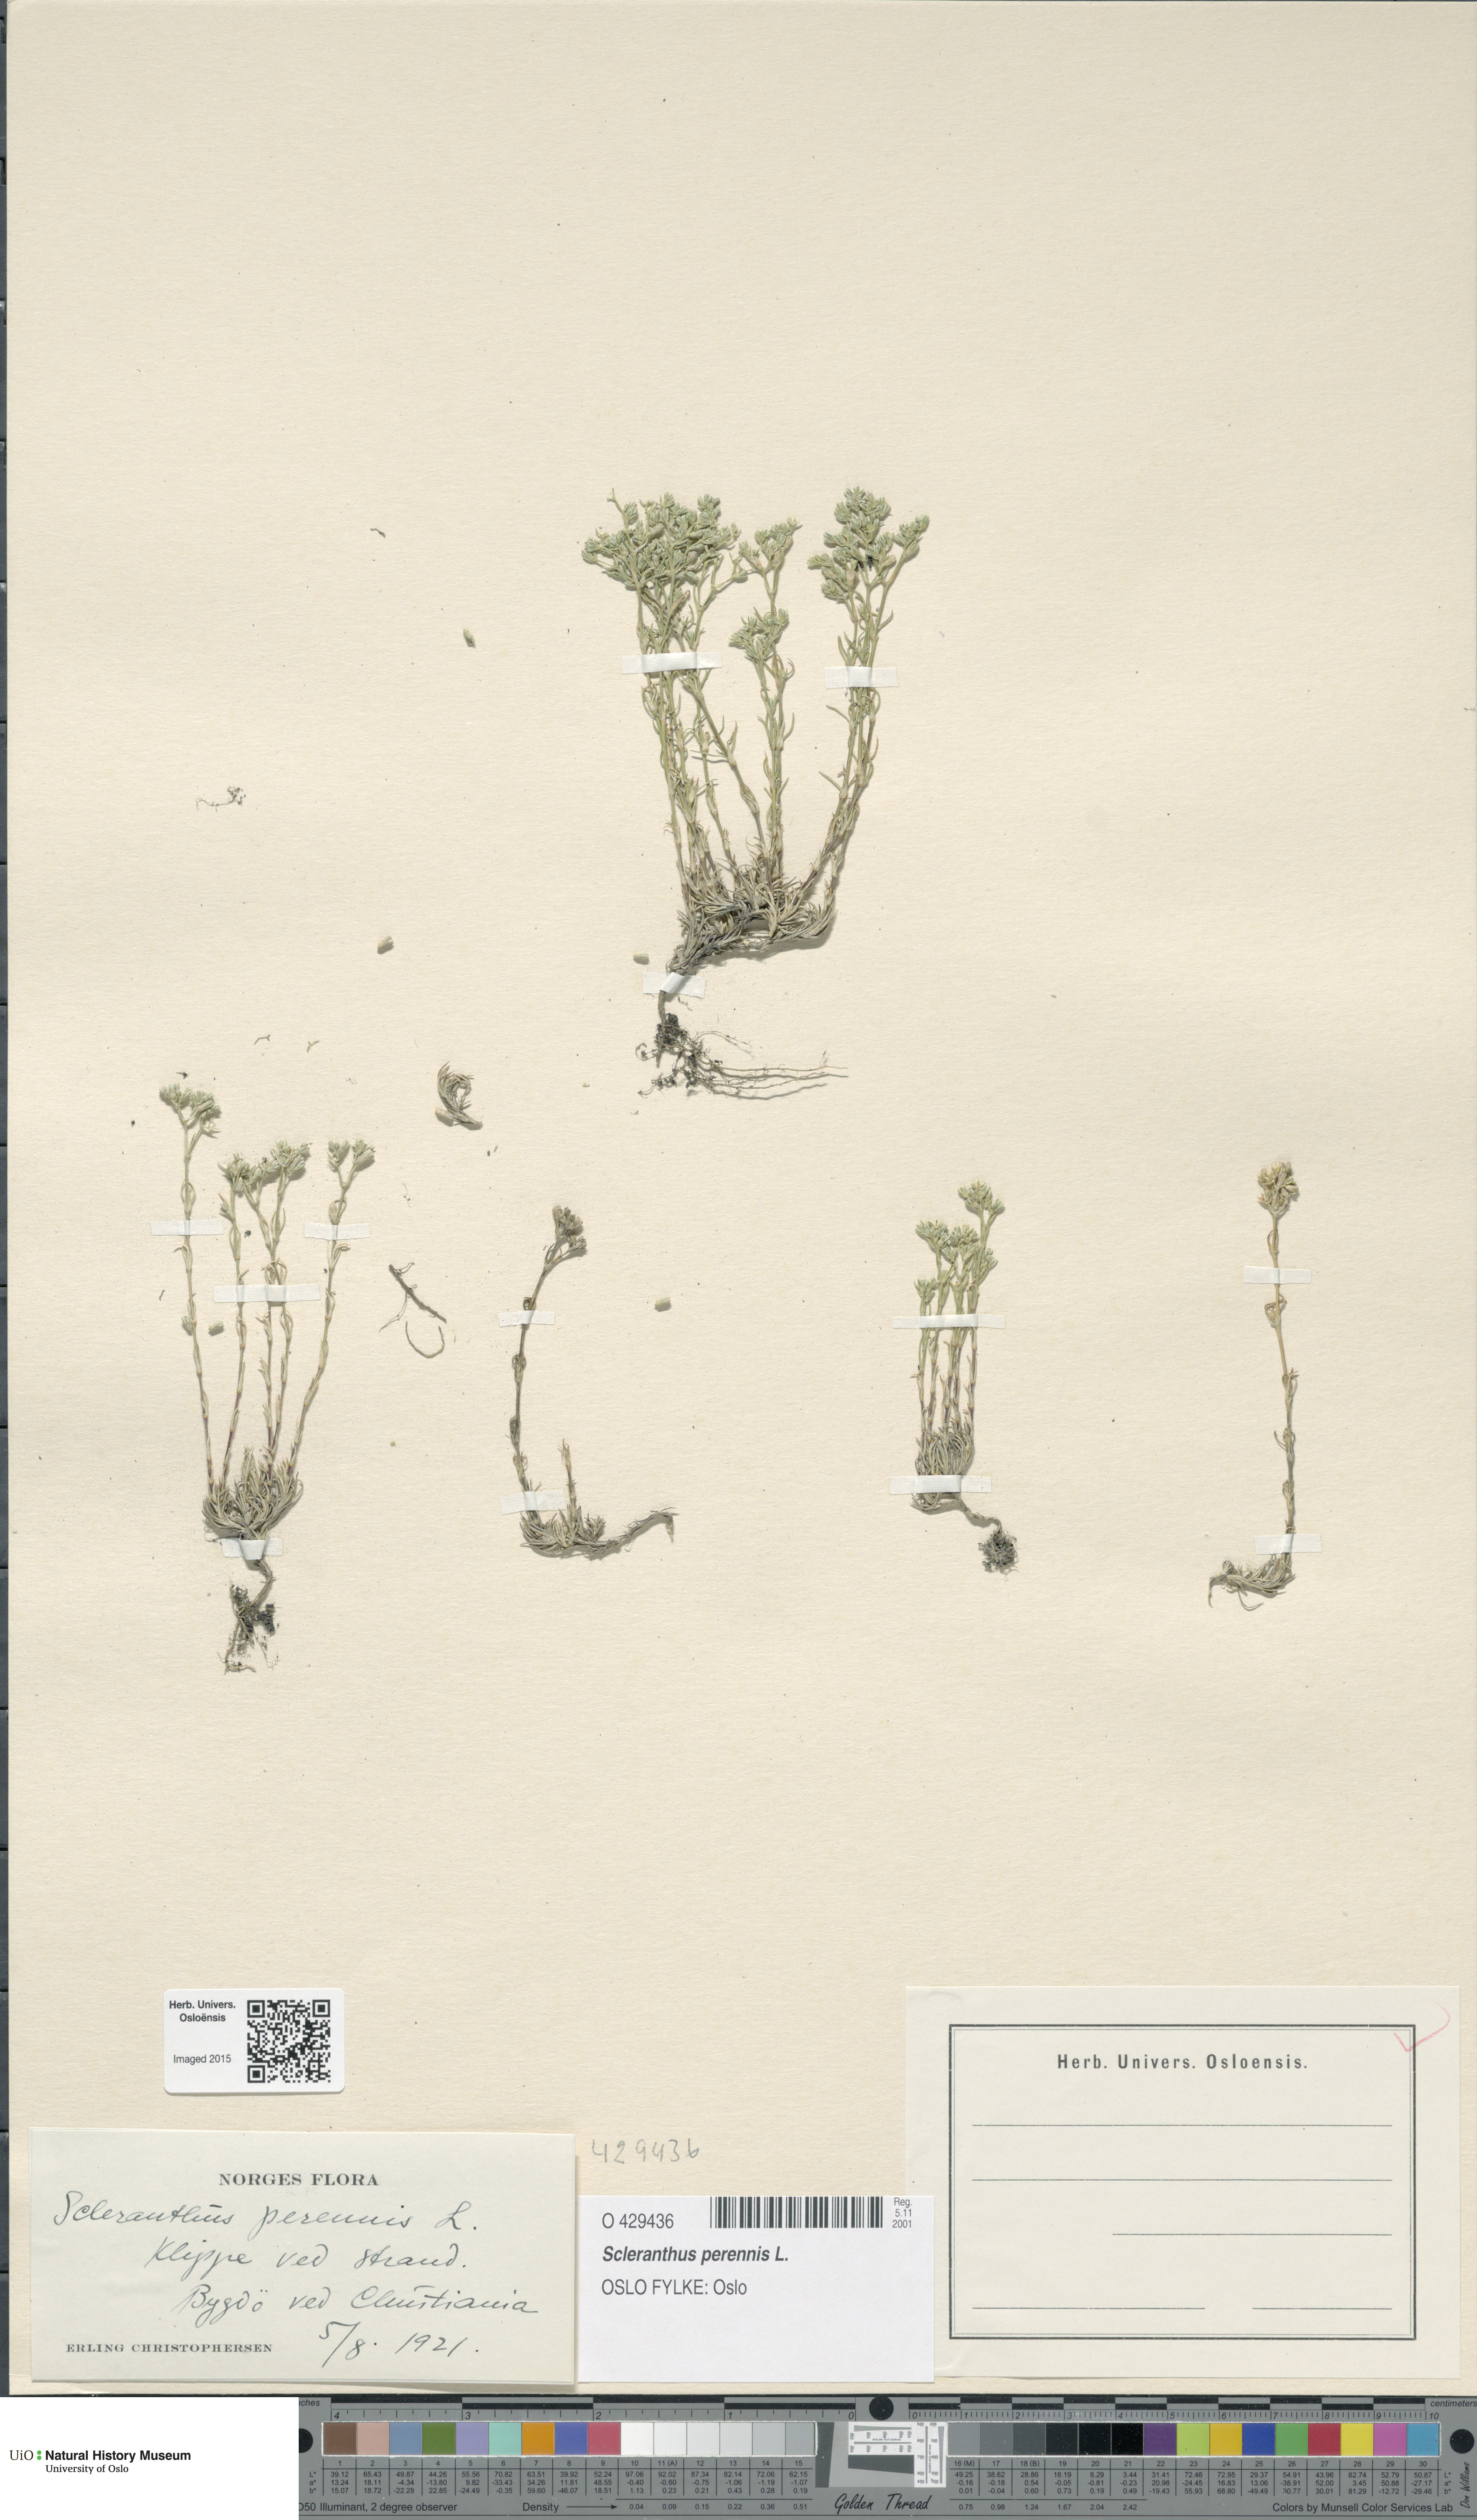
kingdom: Plantae
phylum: Tracheophyta
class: Magnoliopsida
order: Caryophyllales
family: Caryophyllaceae
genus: Scleranthus
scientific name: Scleranthus perennis
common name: Perennial knawel
